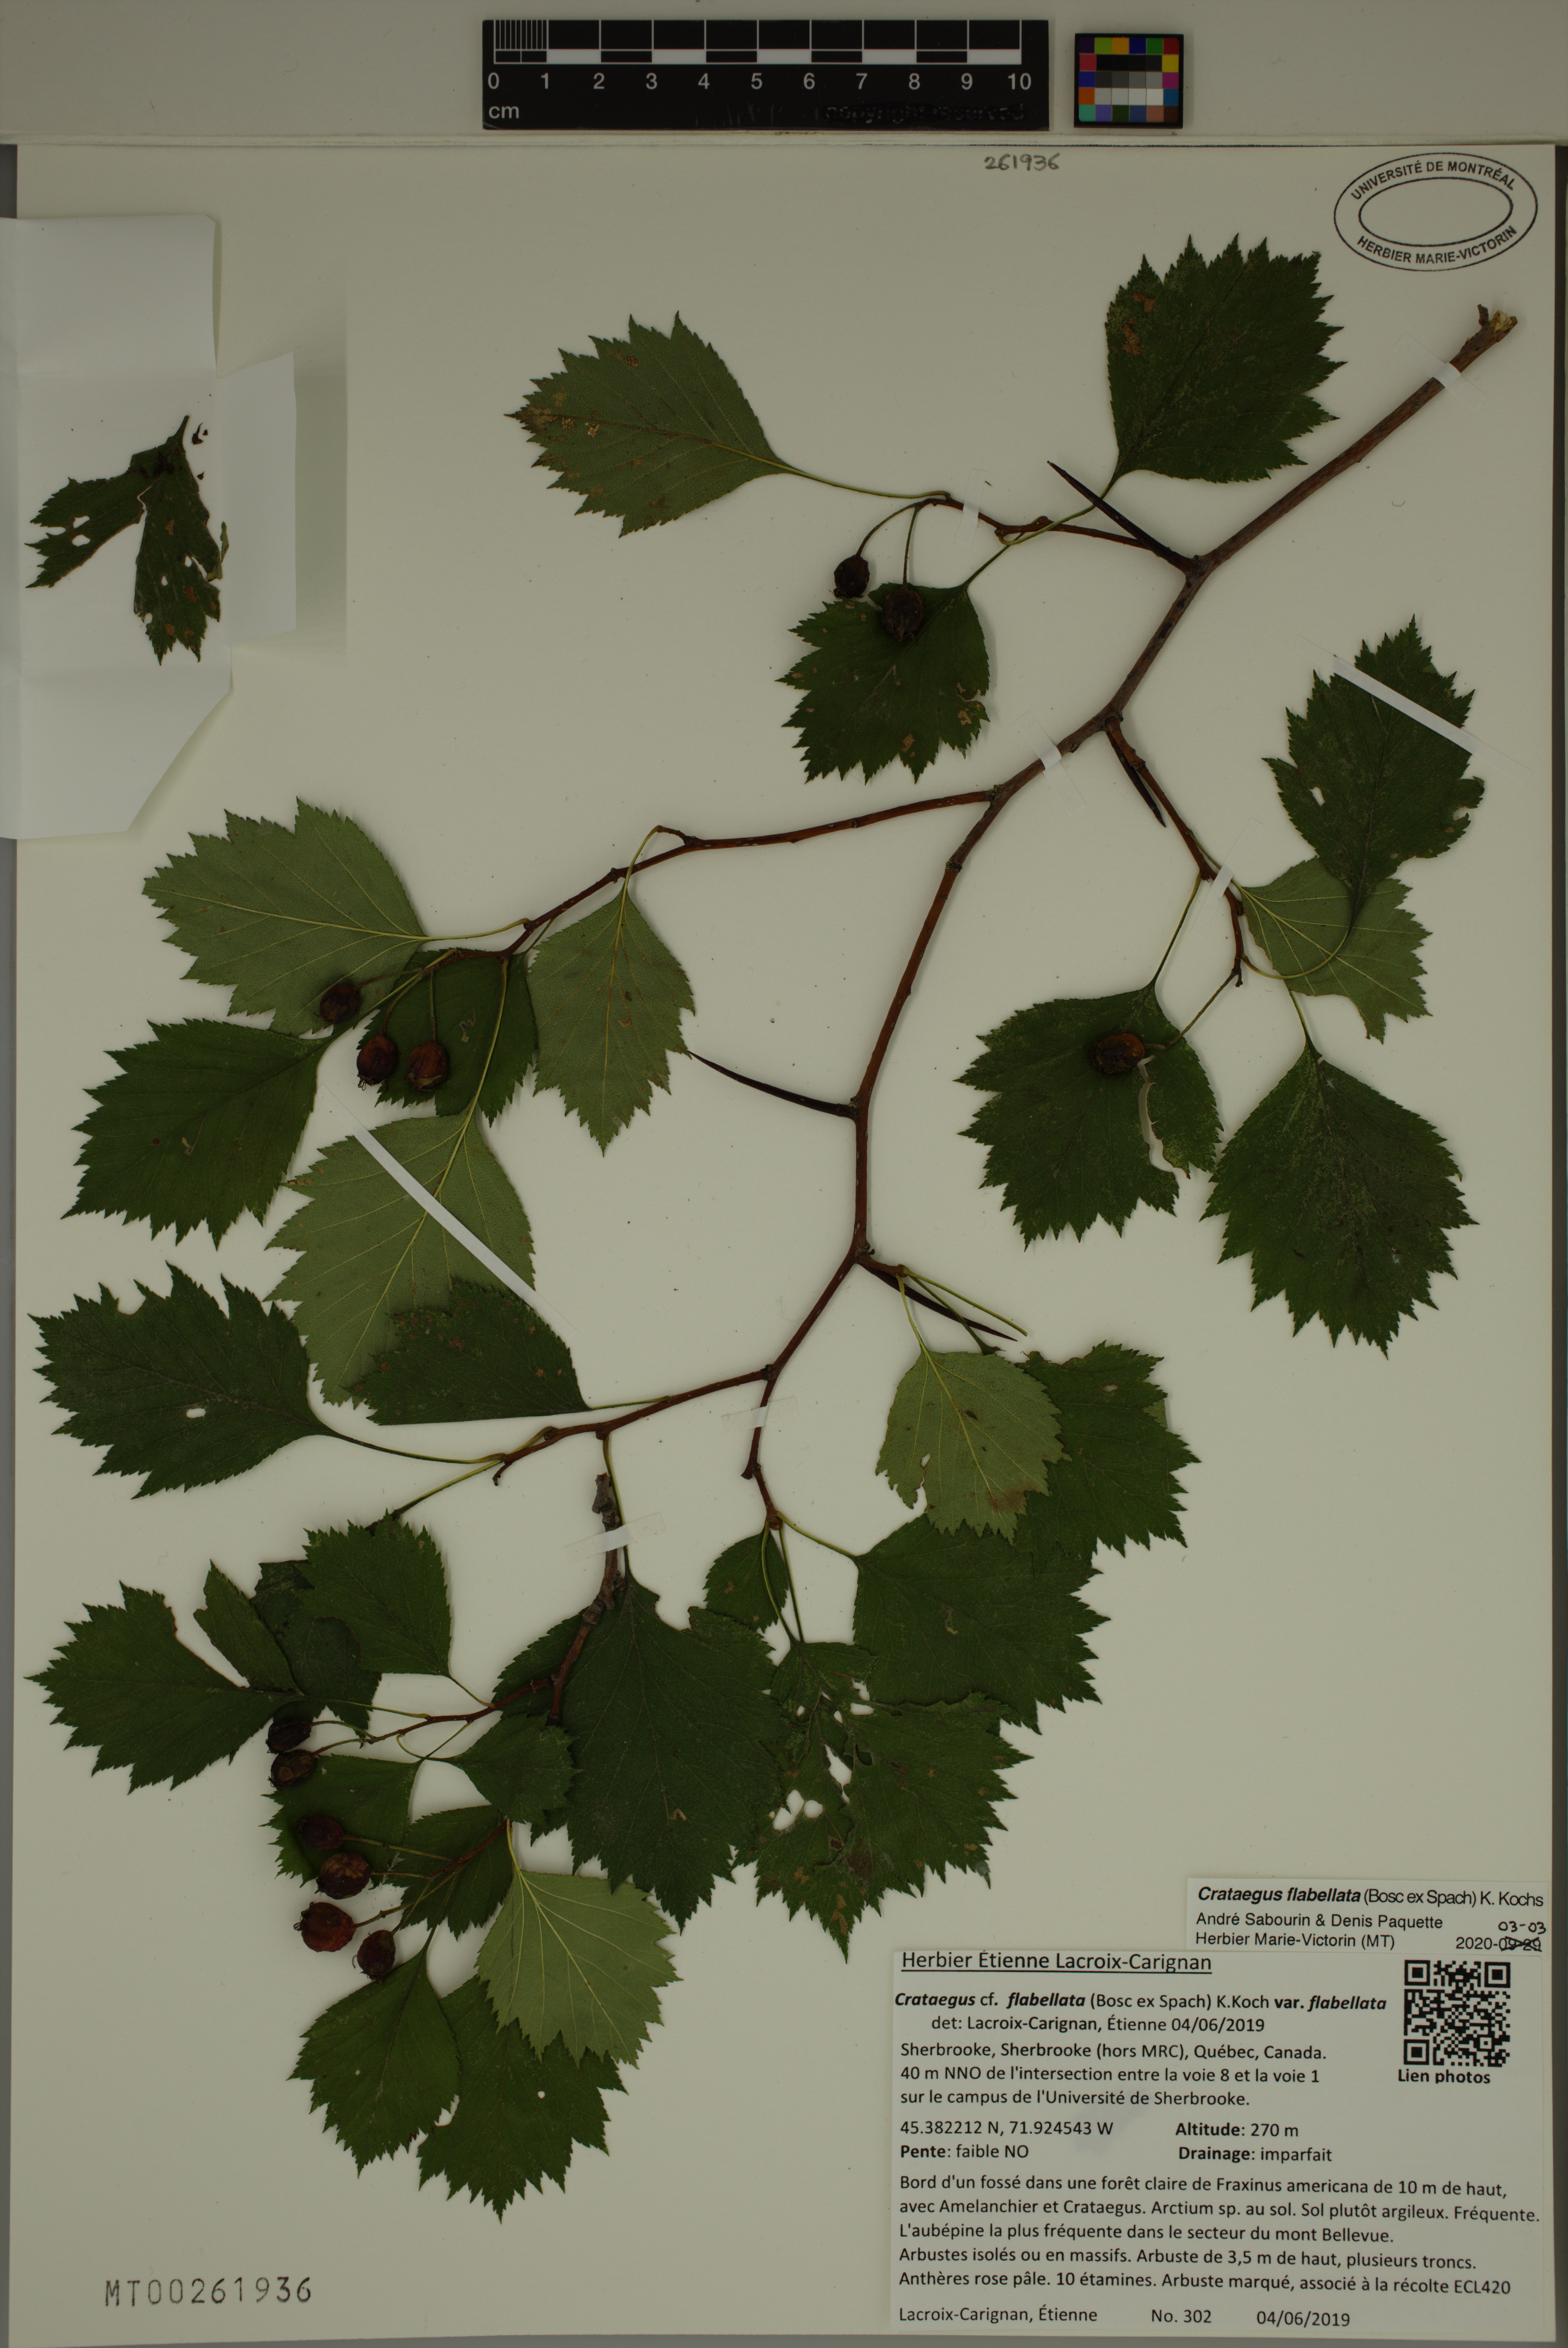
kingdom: Plantae
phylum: Tracheophyta
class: Magnoliopsida
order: Rosales
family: Rosaceae
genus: Crataegus
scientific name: Crataegus flabellata
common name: Bosc's hawthorn
